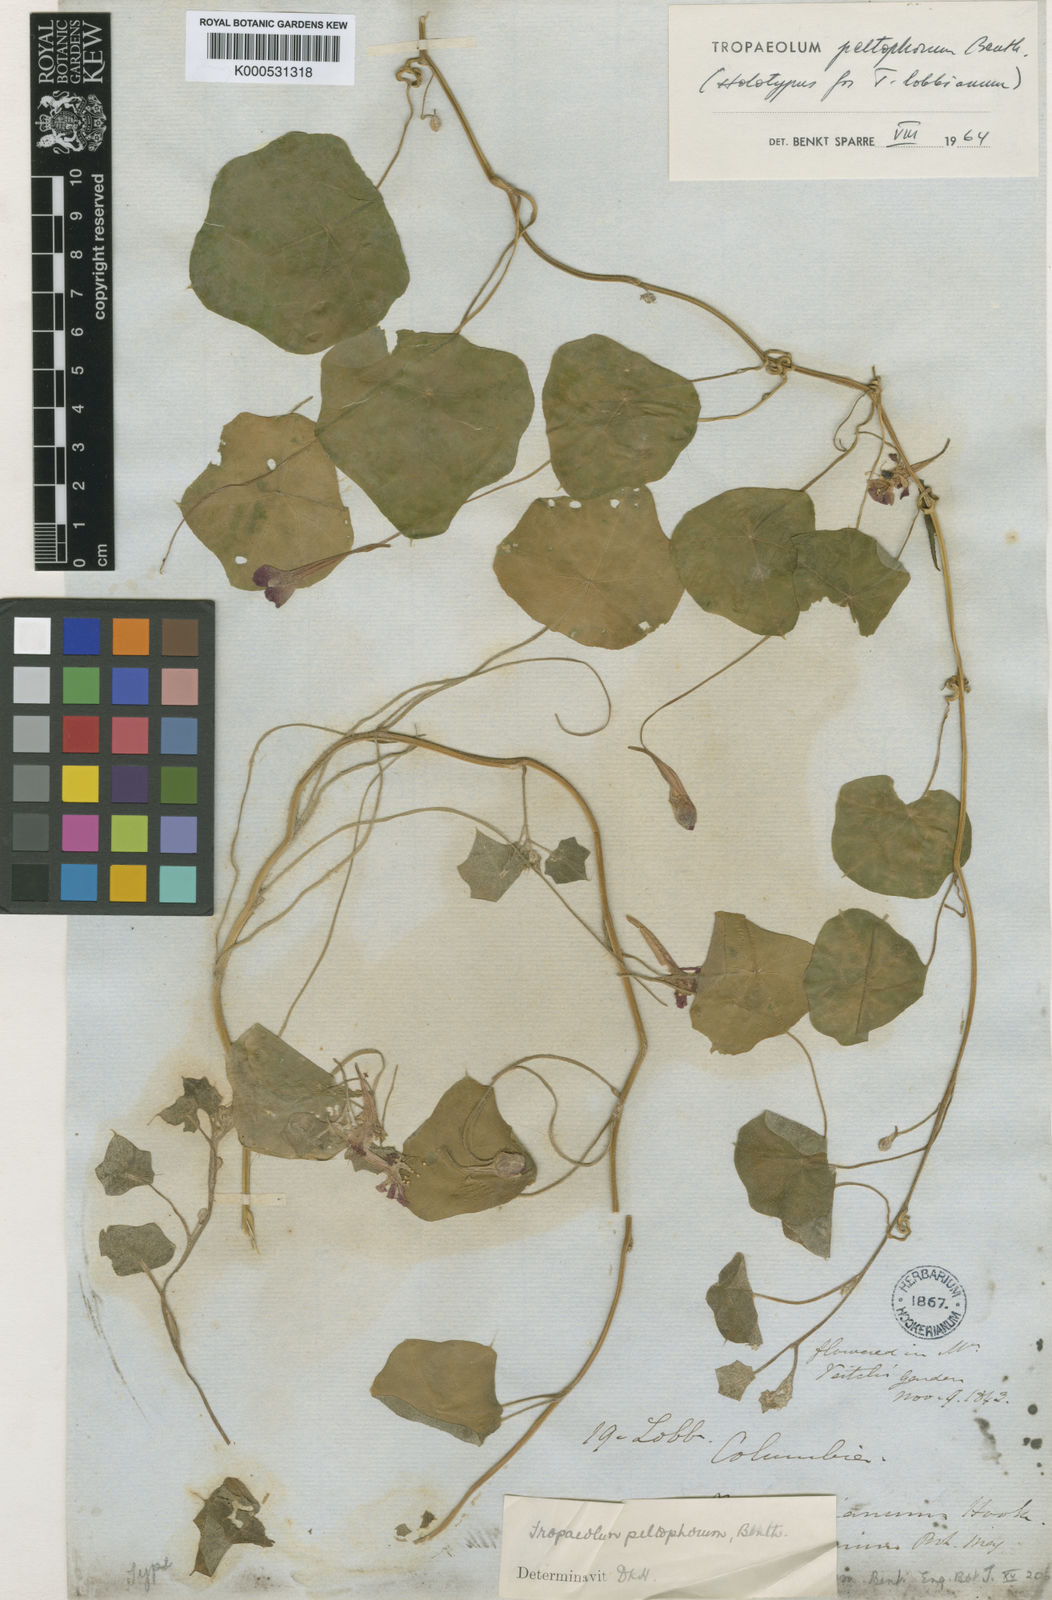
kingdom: Plantae
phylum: Tracheophyta
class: Magnoliopsida
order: Brassicales
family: Tropaeolaceae
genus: Tropaeolum
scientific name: Tropaeolum peltophorum
